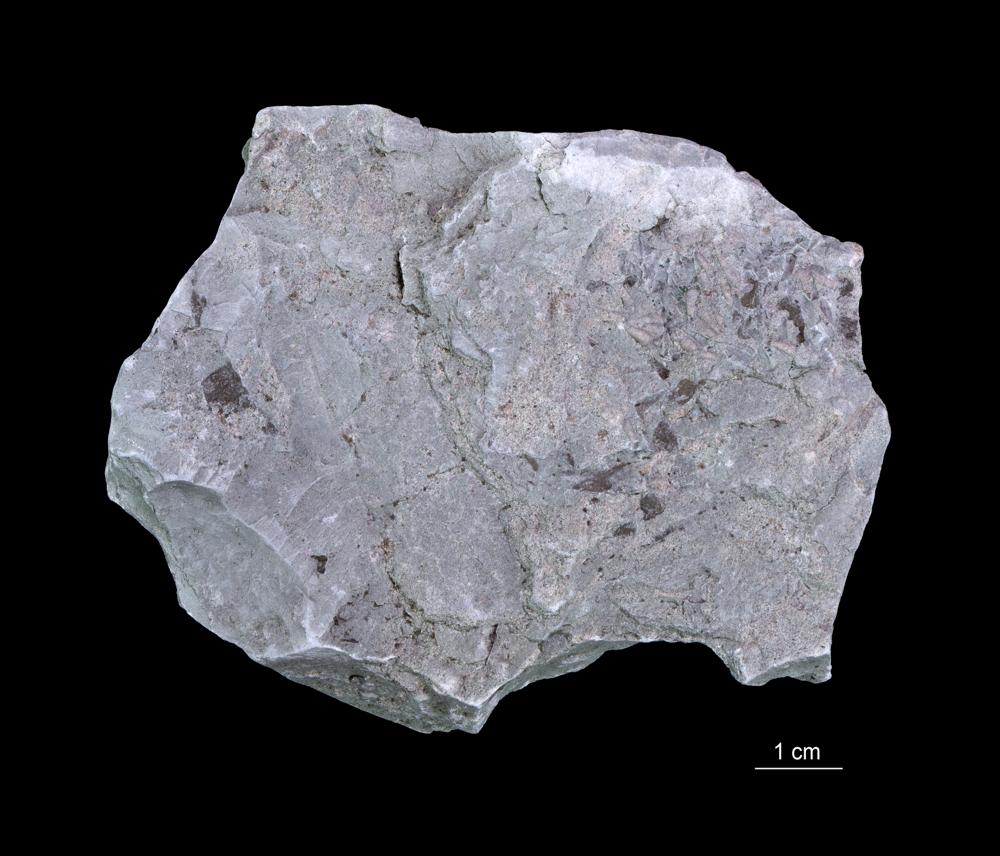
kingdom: Animalia
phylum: Annelida
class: Polychaeta
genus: Volborthella
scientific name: Volborthella tenuis
